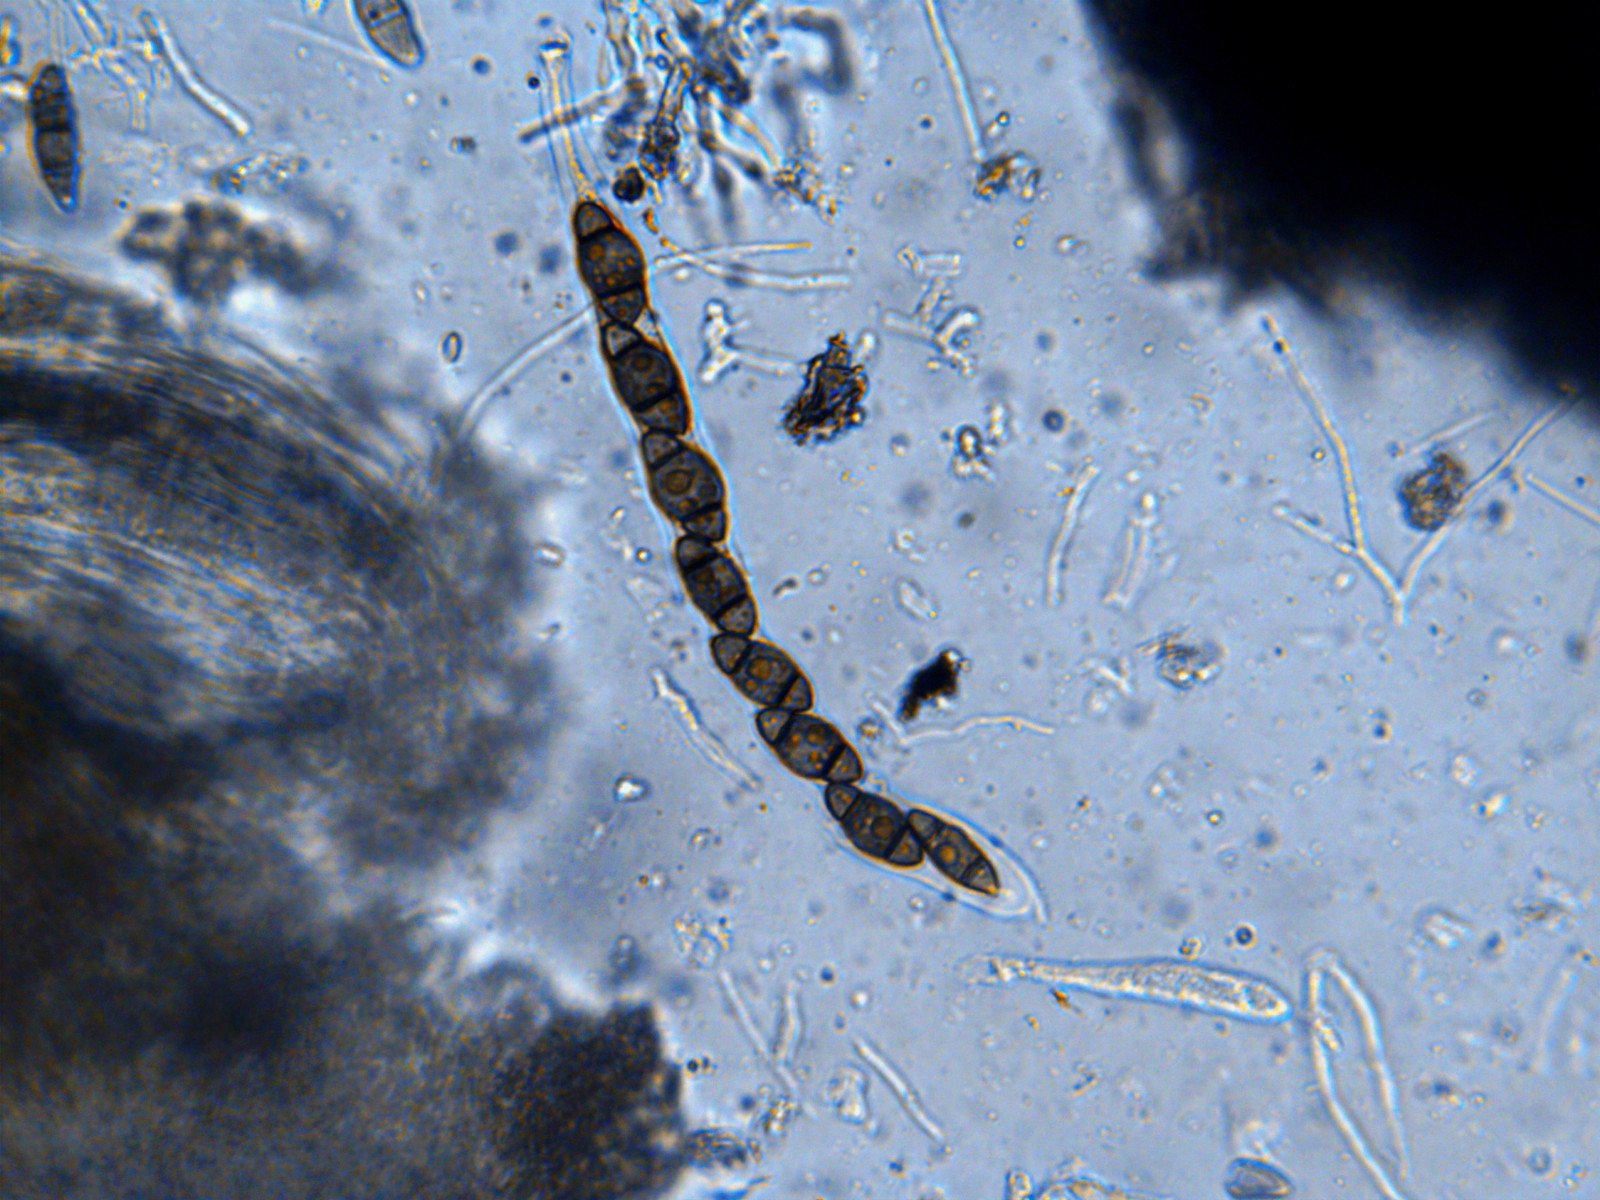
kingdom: Plantae
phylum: Bryophyta
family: Dothideomycetes
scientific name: Dothideomycetes
